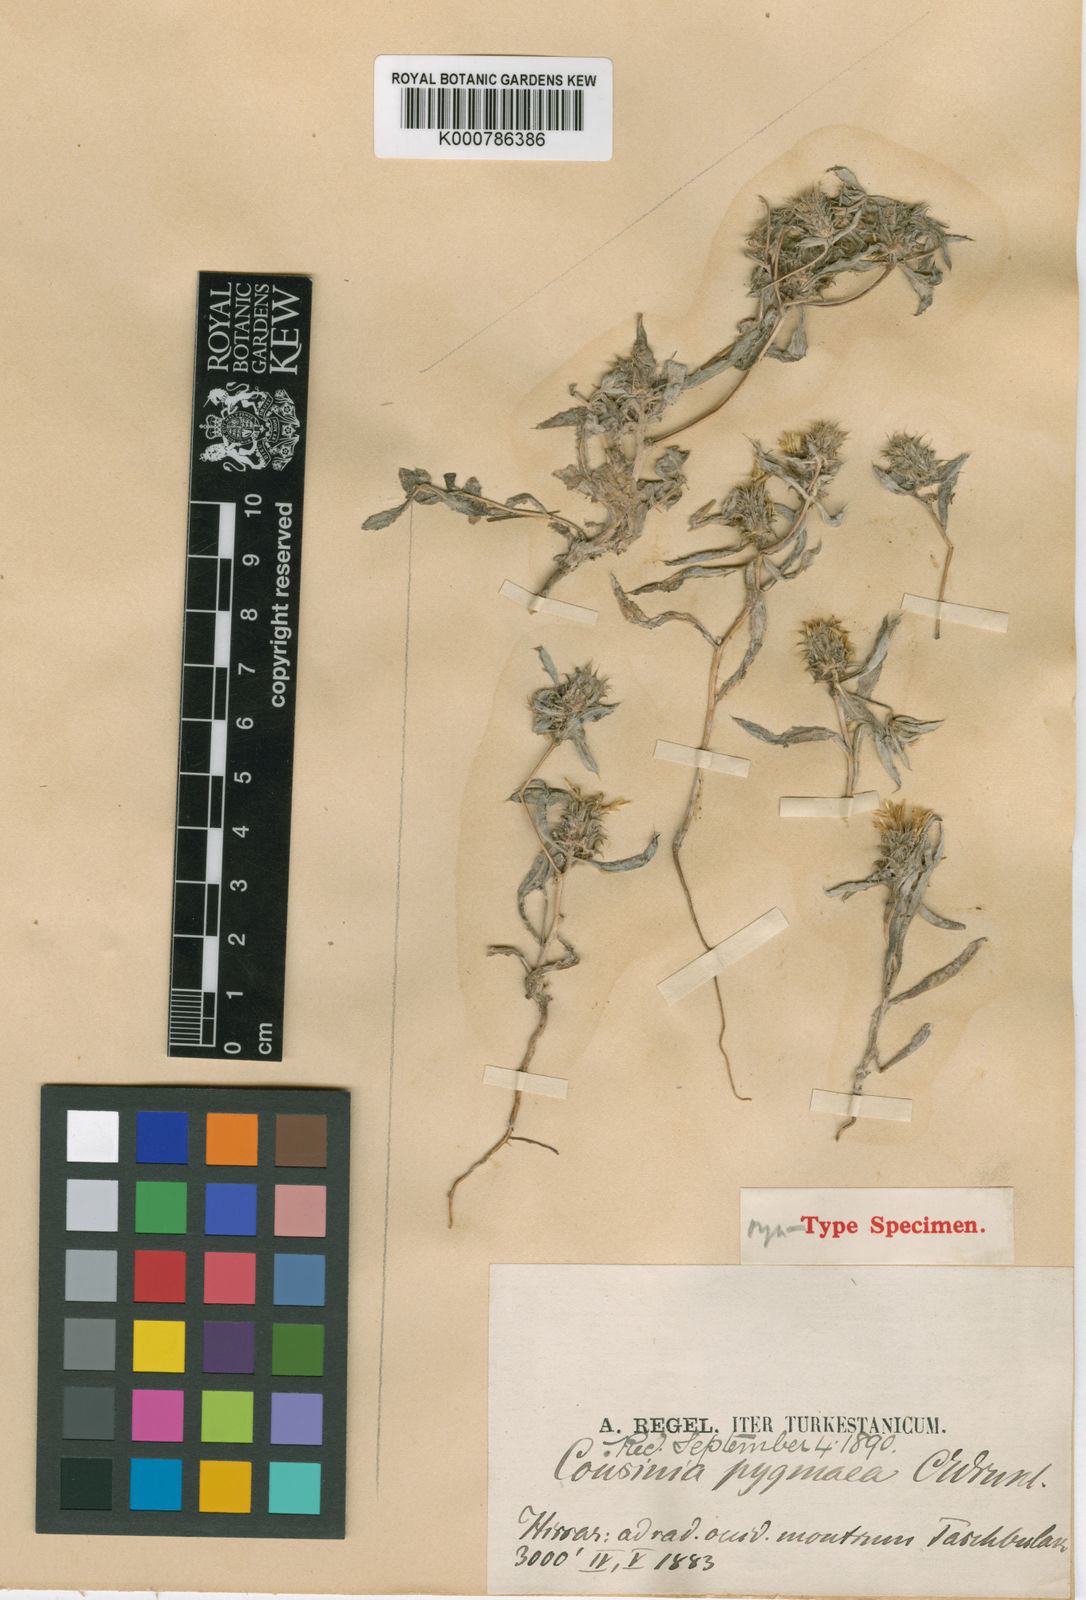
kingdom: Plantae
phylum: Tracheophyta
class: Magnoliopsida
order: Asterales
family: Asteraceae
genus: Cousinia
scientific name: Cousinia pygmaea
